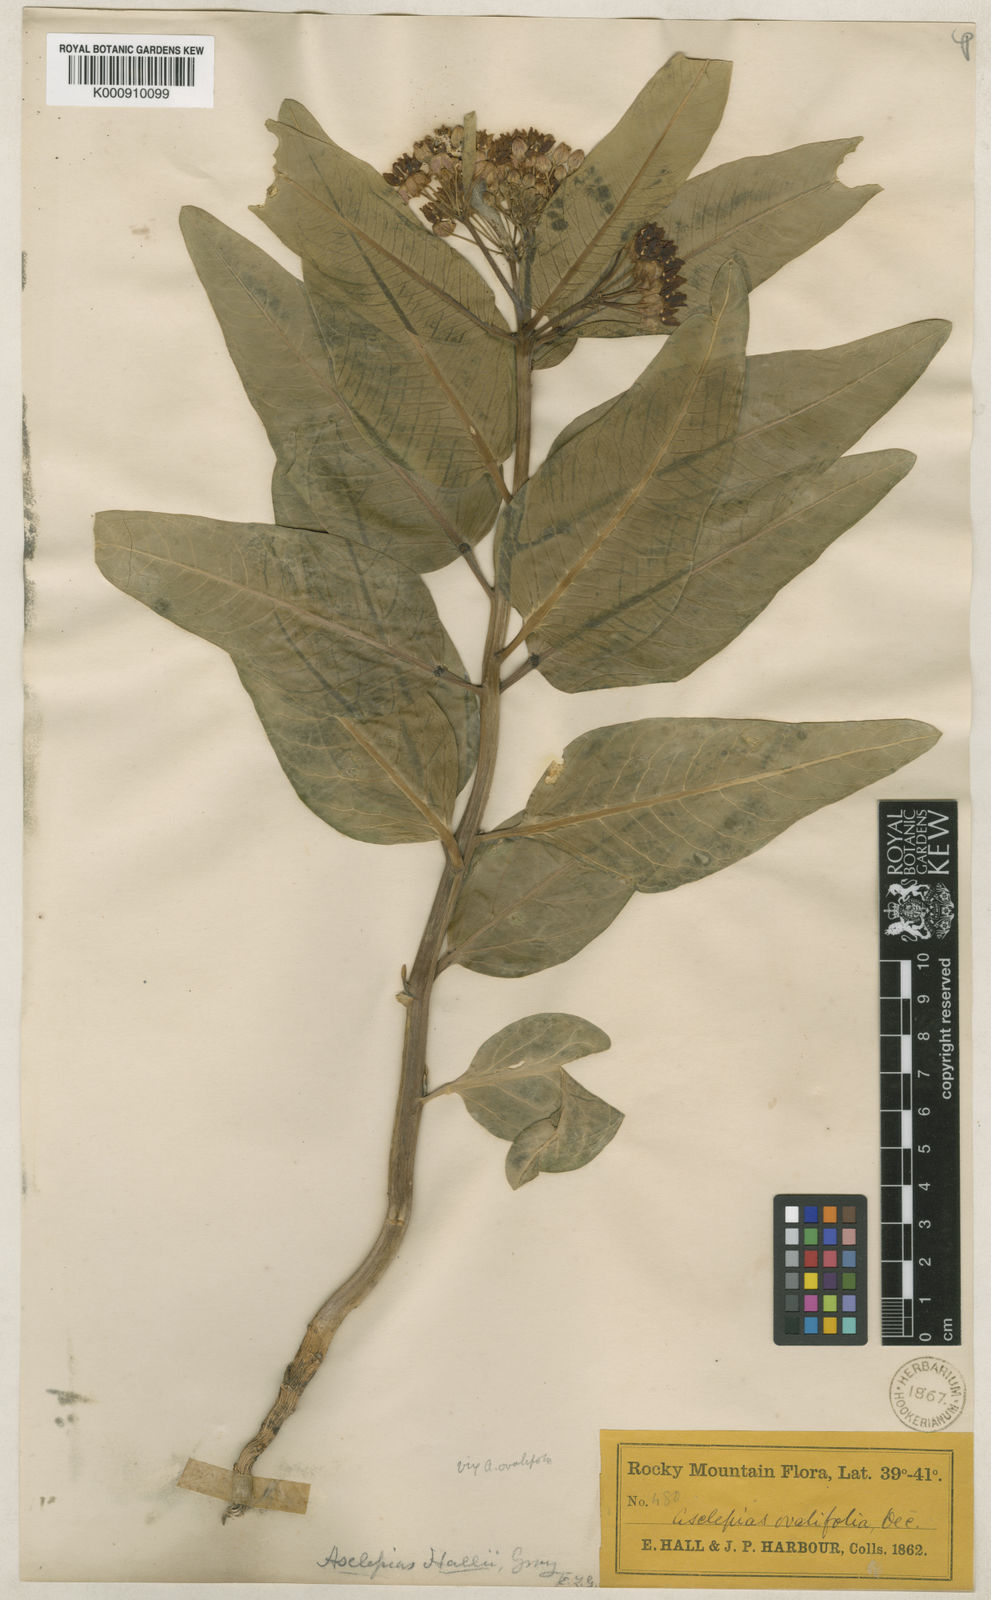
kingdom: Plantae
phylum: Tracheophyta
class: Magnoliopsida
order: Gentianales
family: Apocynaceae
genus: Asclepias
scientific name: Asclepias hallii
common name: Hall's milkweed
